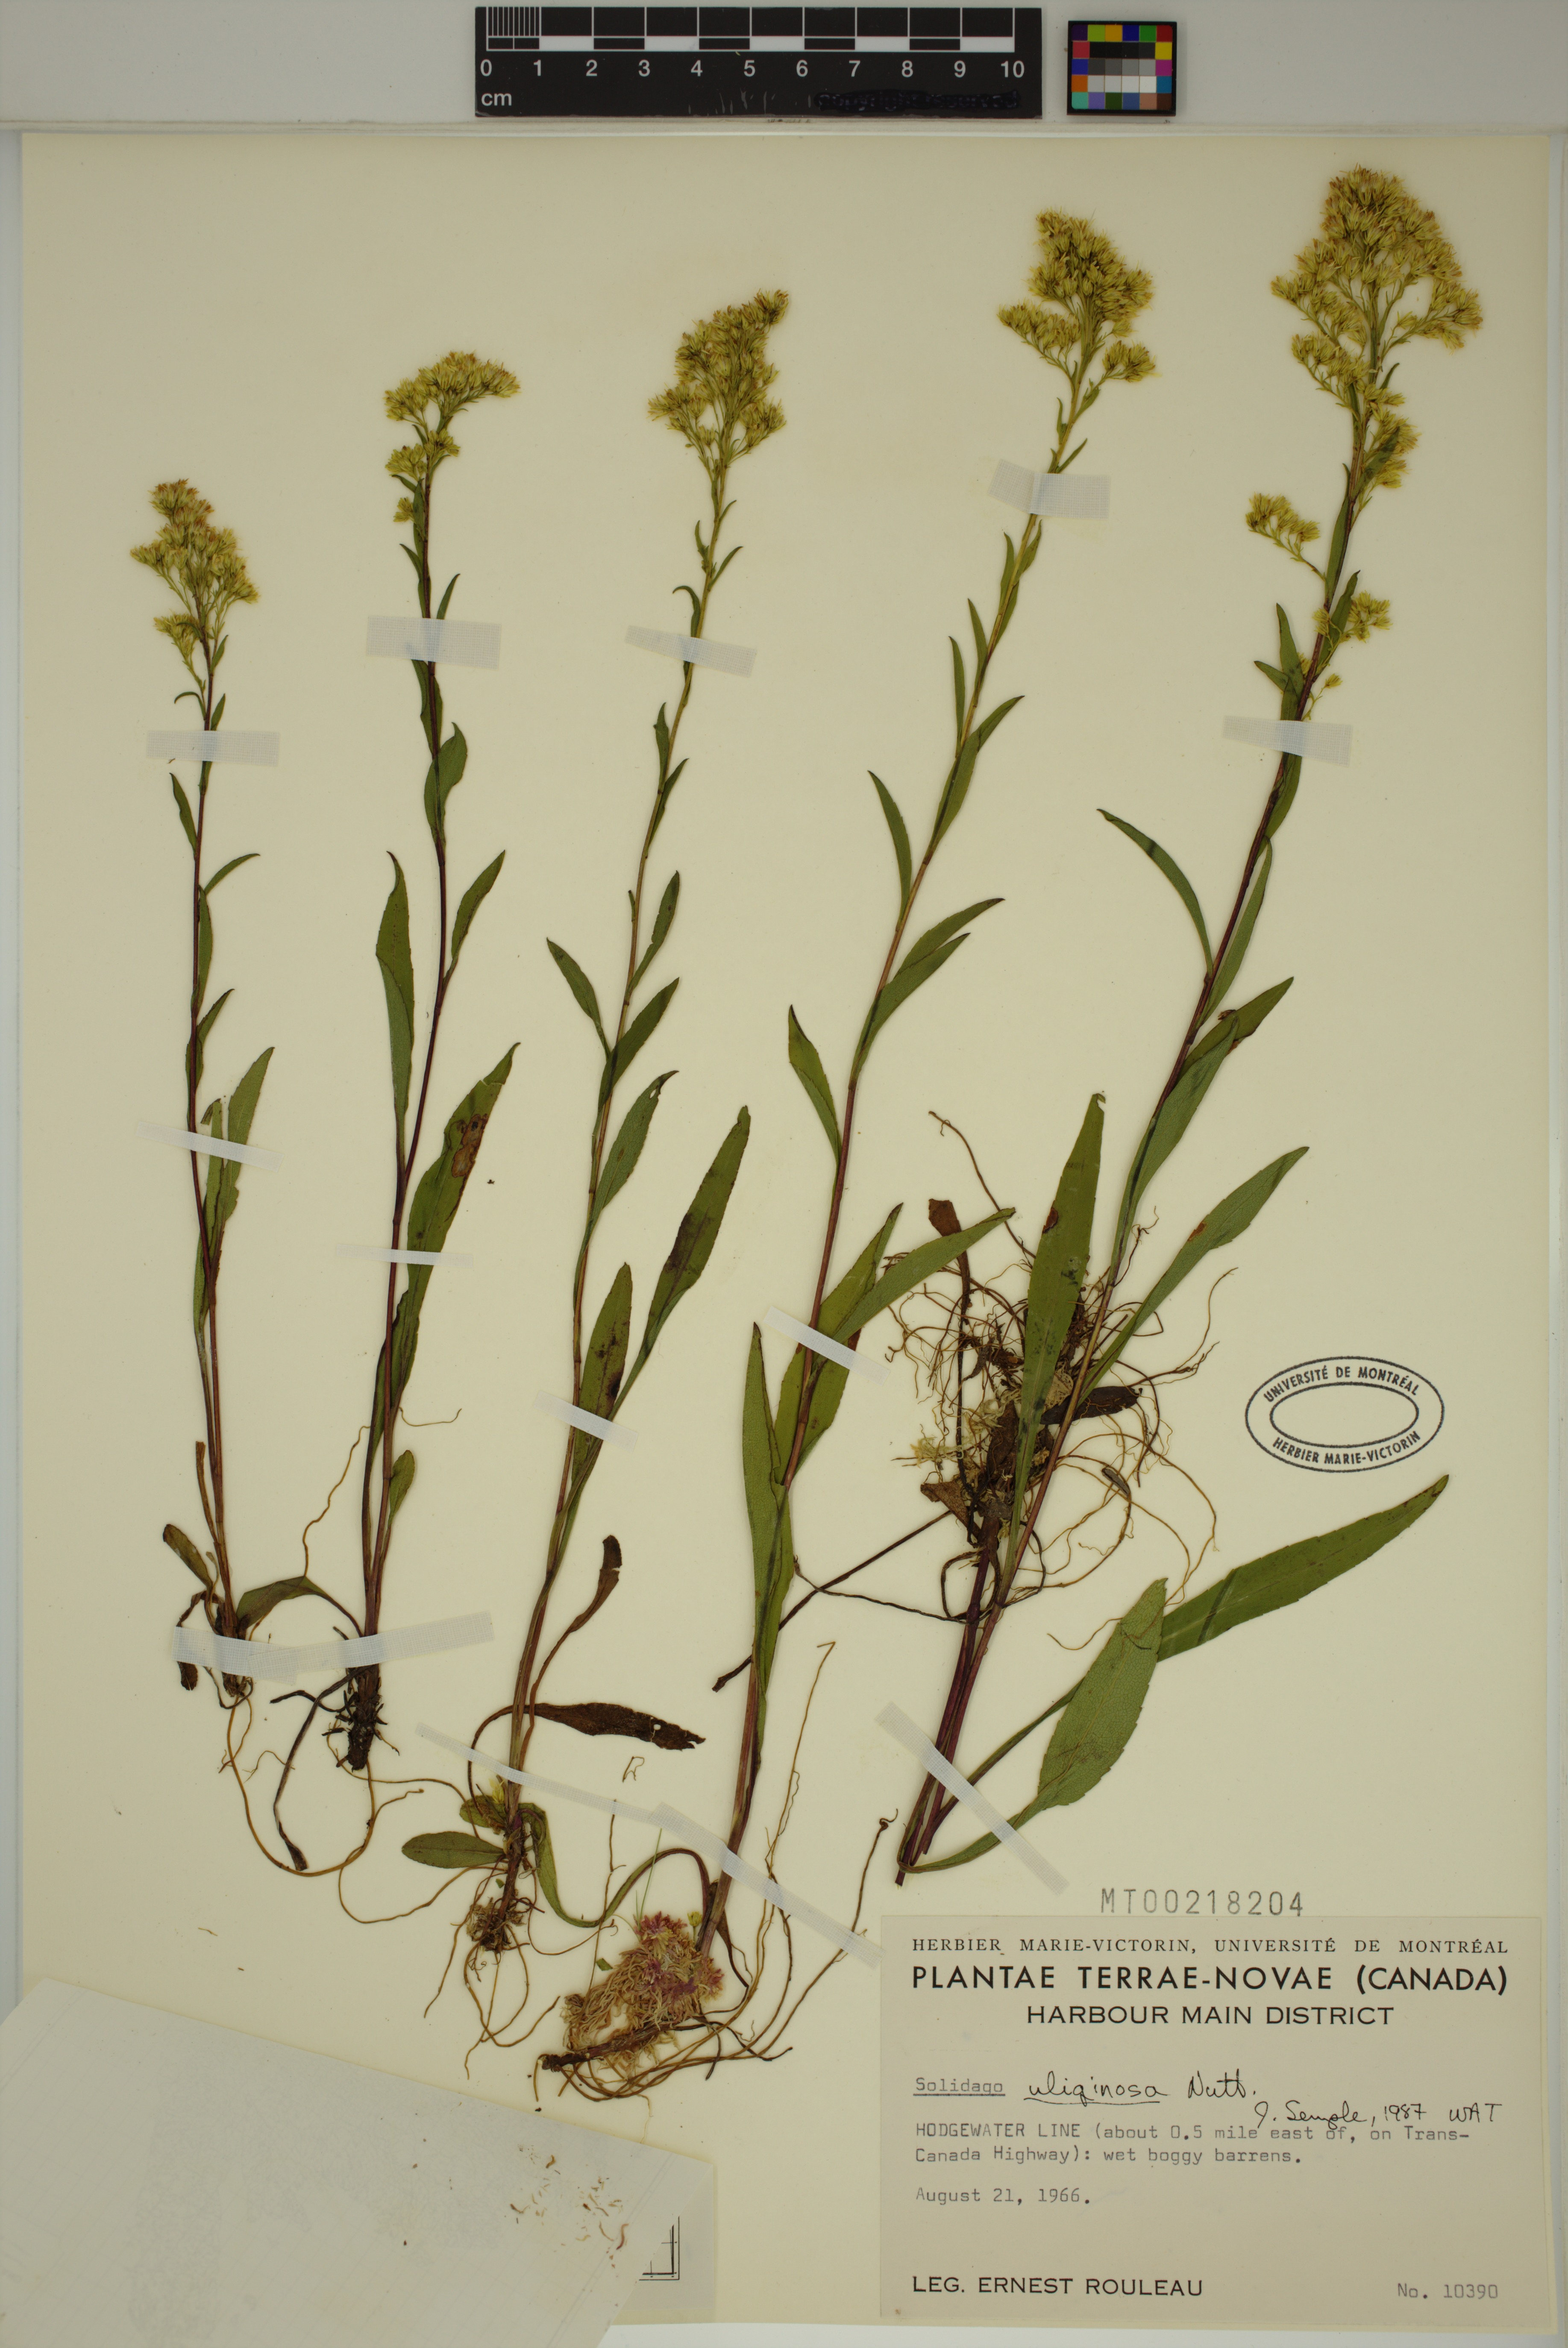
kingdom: Plantae
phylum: Tracheophyta
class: Magnoliopsida
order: Asterales
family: Asteraceae
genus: Solidago
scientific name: Solidago uliginosa
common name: Bog goldenrod
